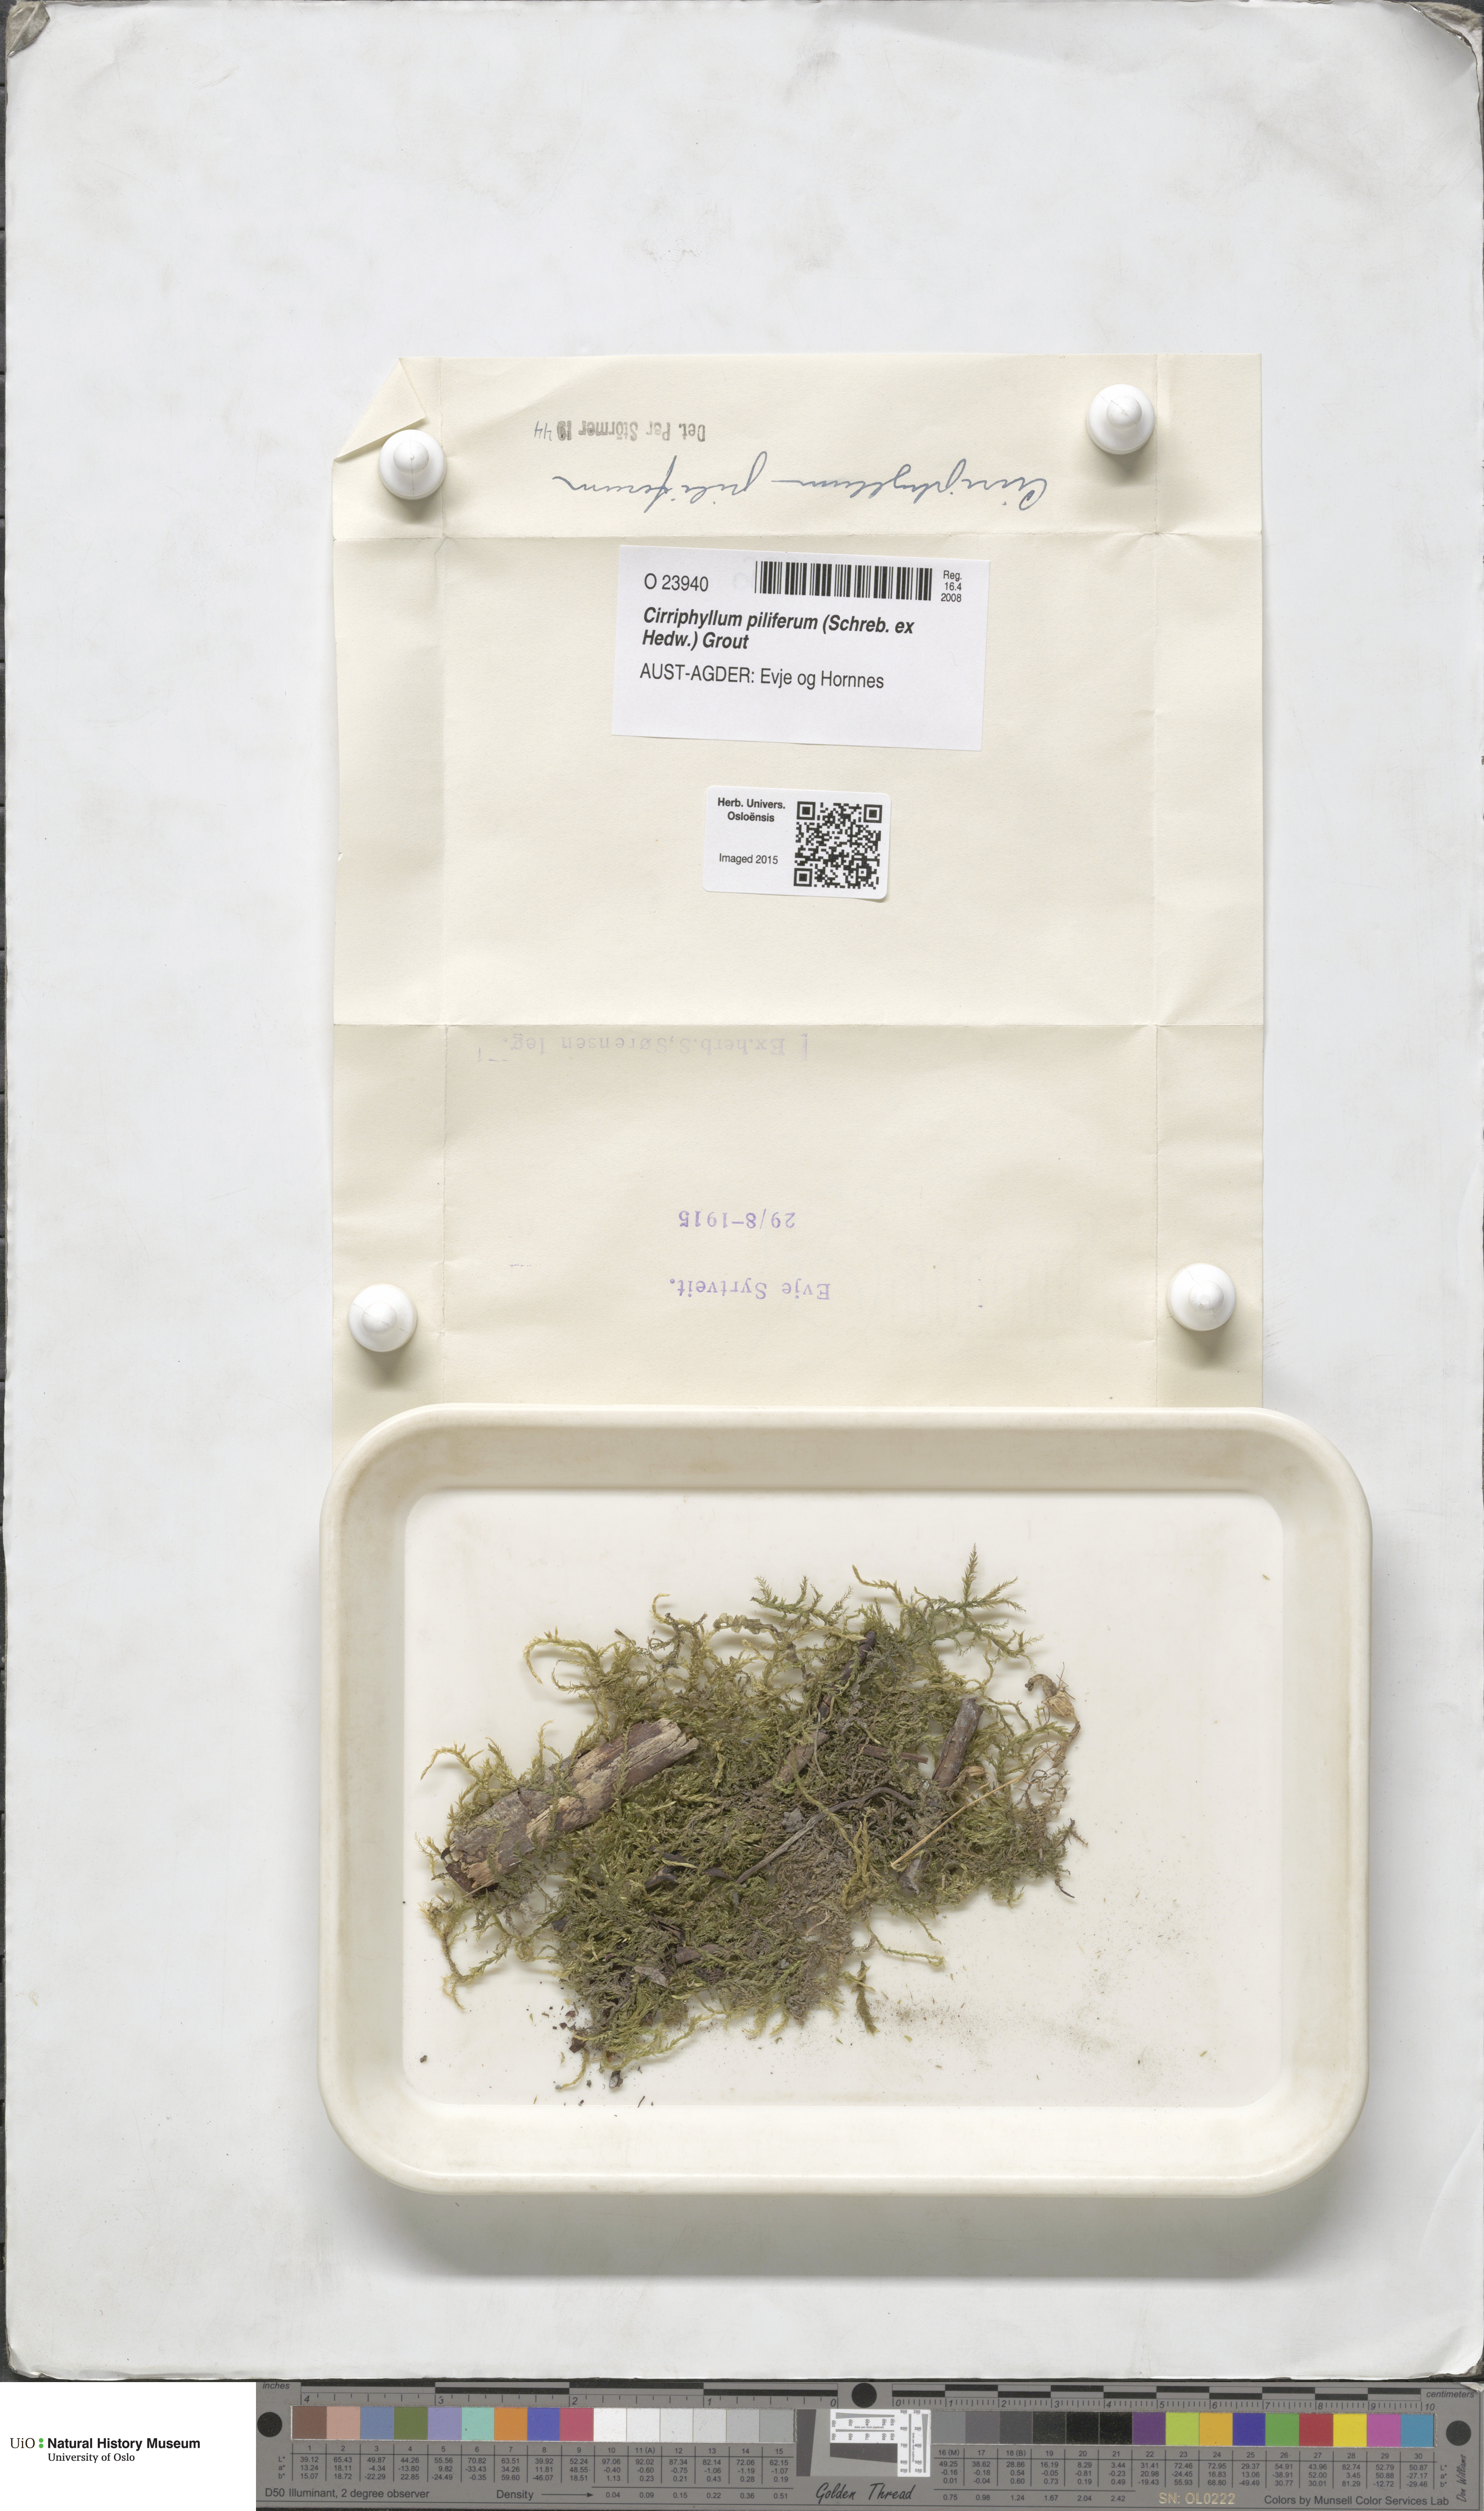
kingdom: Plantae
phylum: Bryophyta
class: Bryopsida
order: Hypnales
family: Brachytheciaceae
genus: Cirriphyllum
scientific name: Cirriphyllum piliferum
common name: Hair-pointed moss
